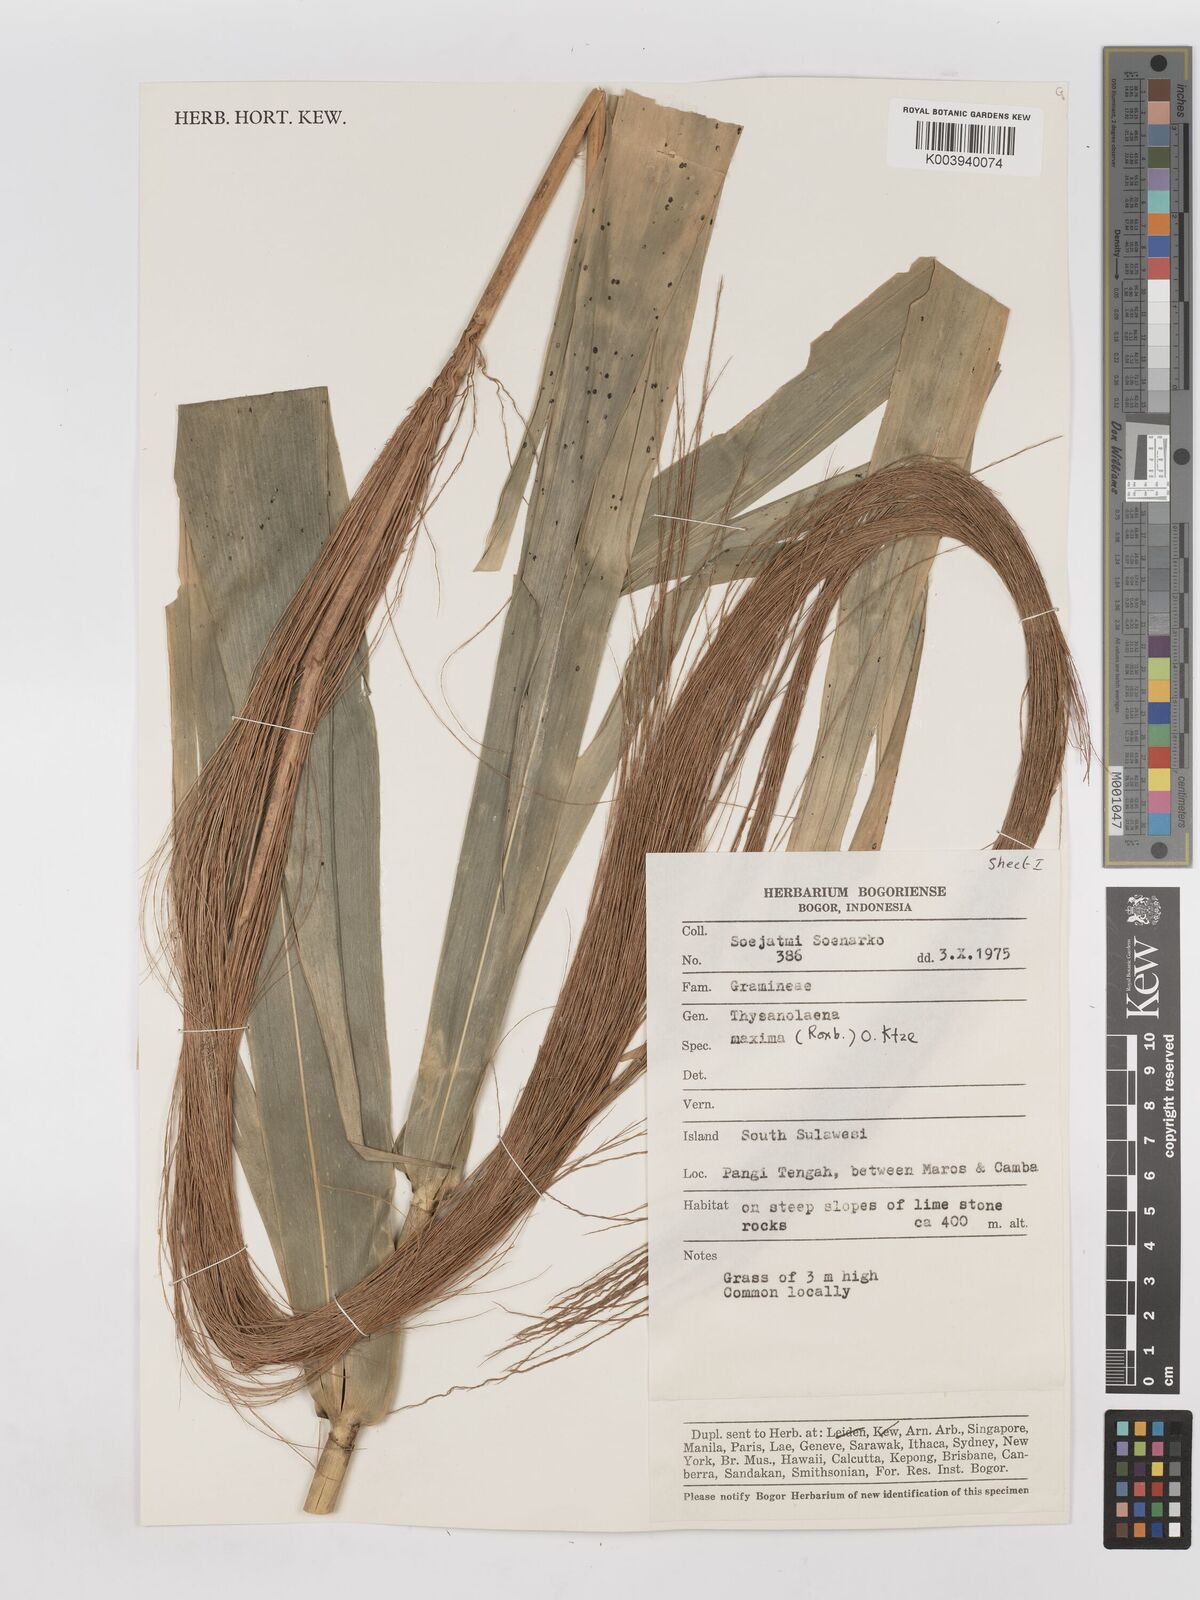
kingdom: Plantae
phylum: Tracheophyta
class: Liliopsida
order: Poales
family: Poaceae
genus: Thysanolaena
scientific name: Thysanolaena latifolia
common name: Tiger grass
